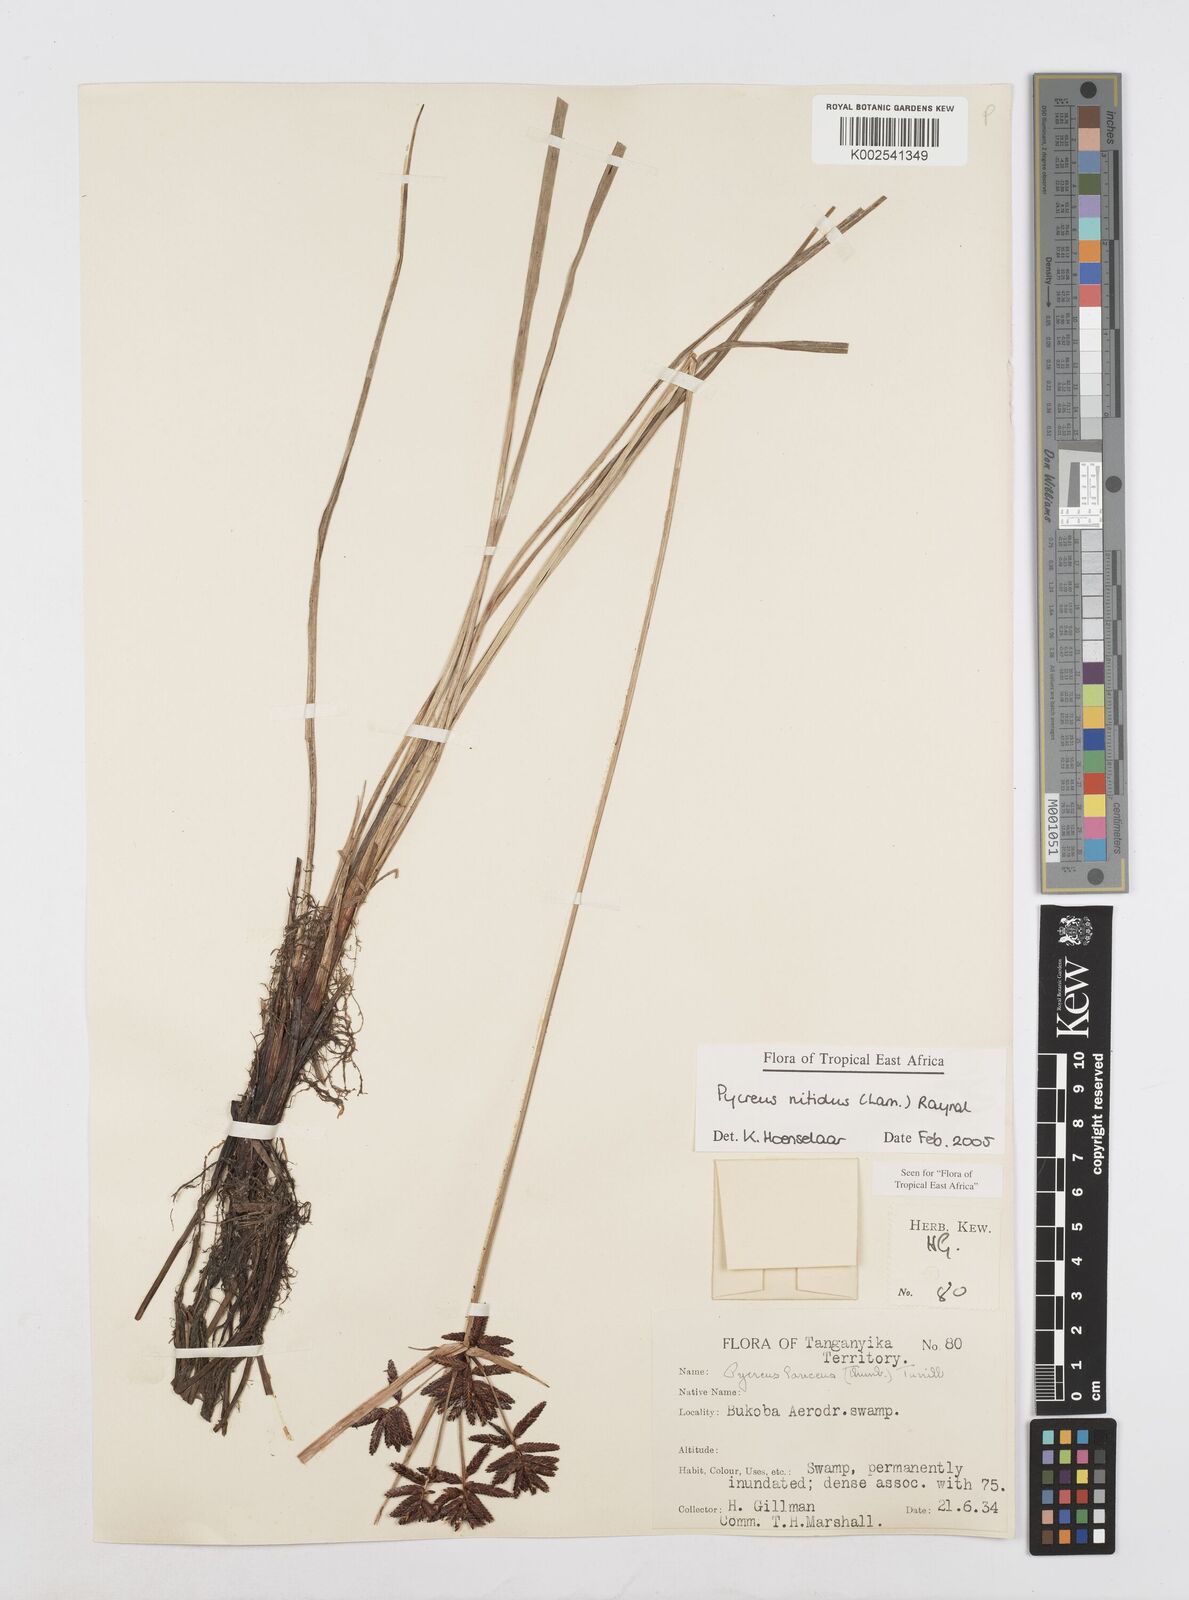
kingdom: Plantae
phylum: Tracheophyta
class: Liliopsida
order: Poales
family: Cyperaceae
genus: Cyperus
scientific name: Cyperus nitidus
